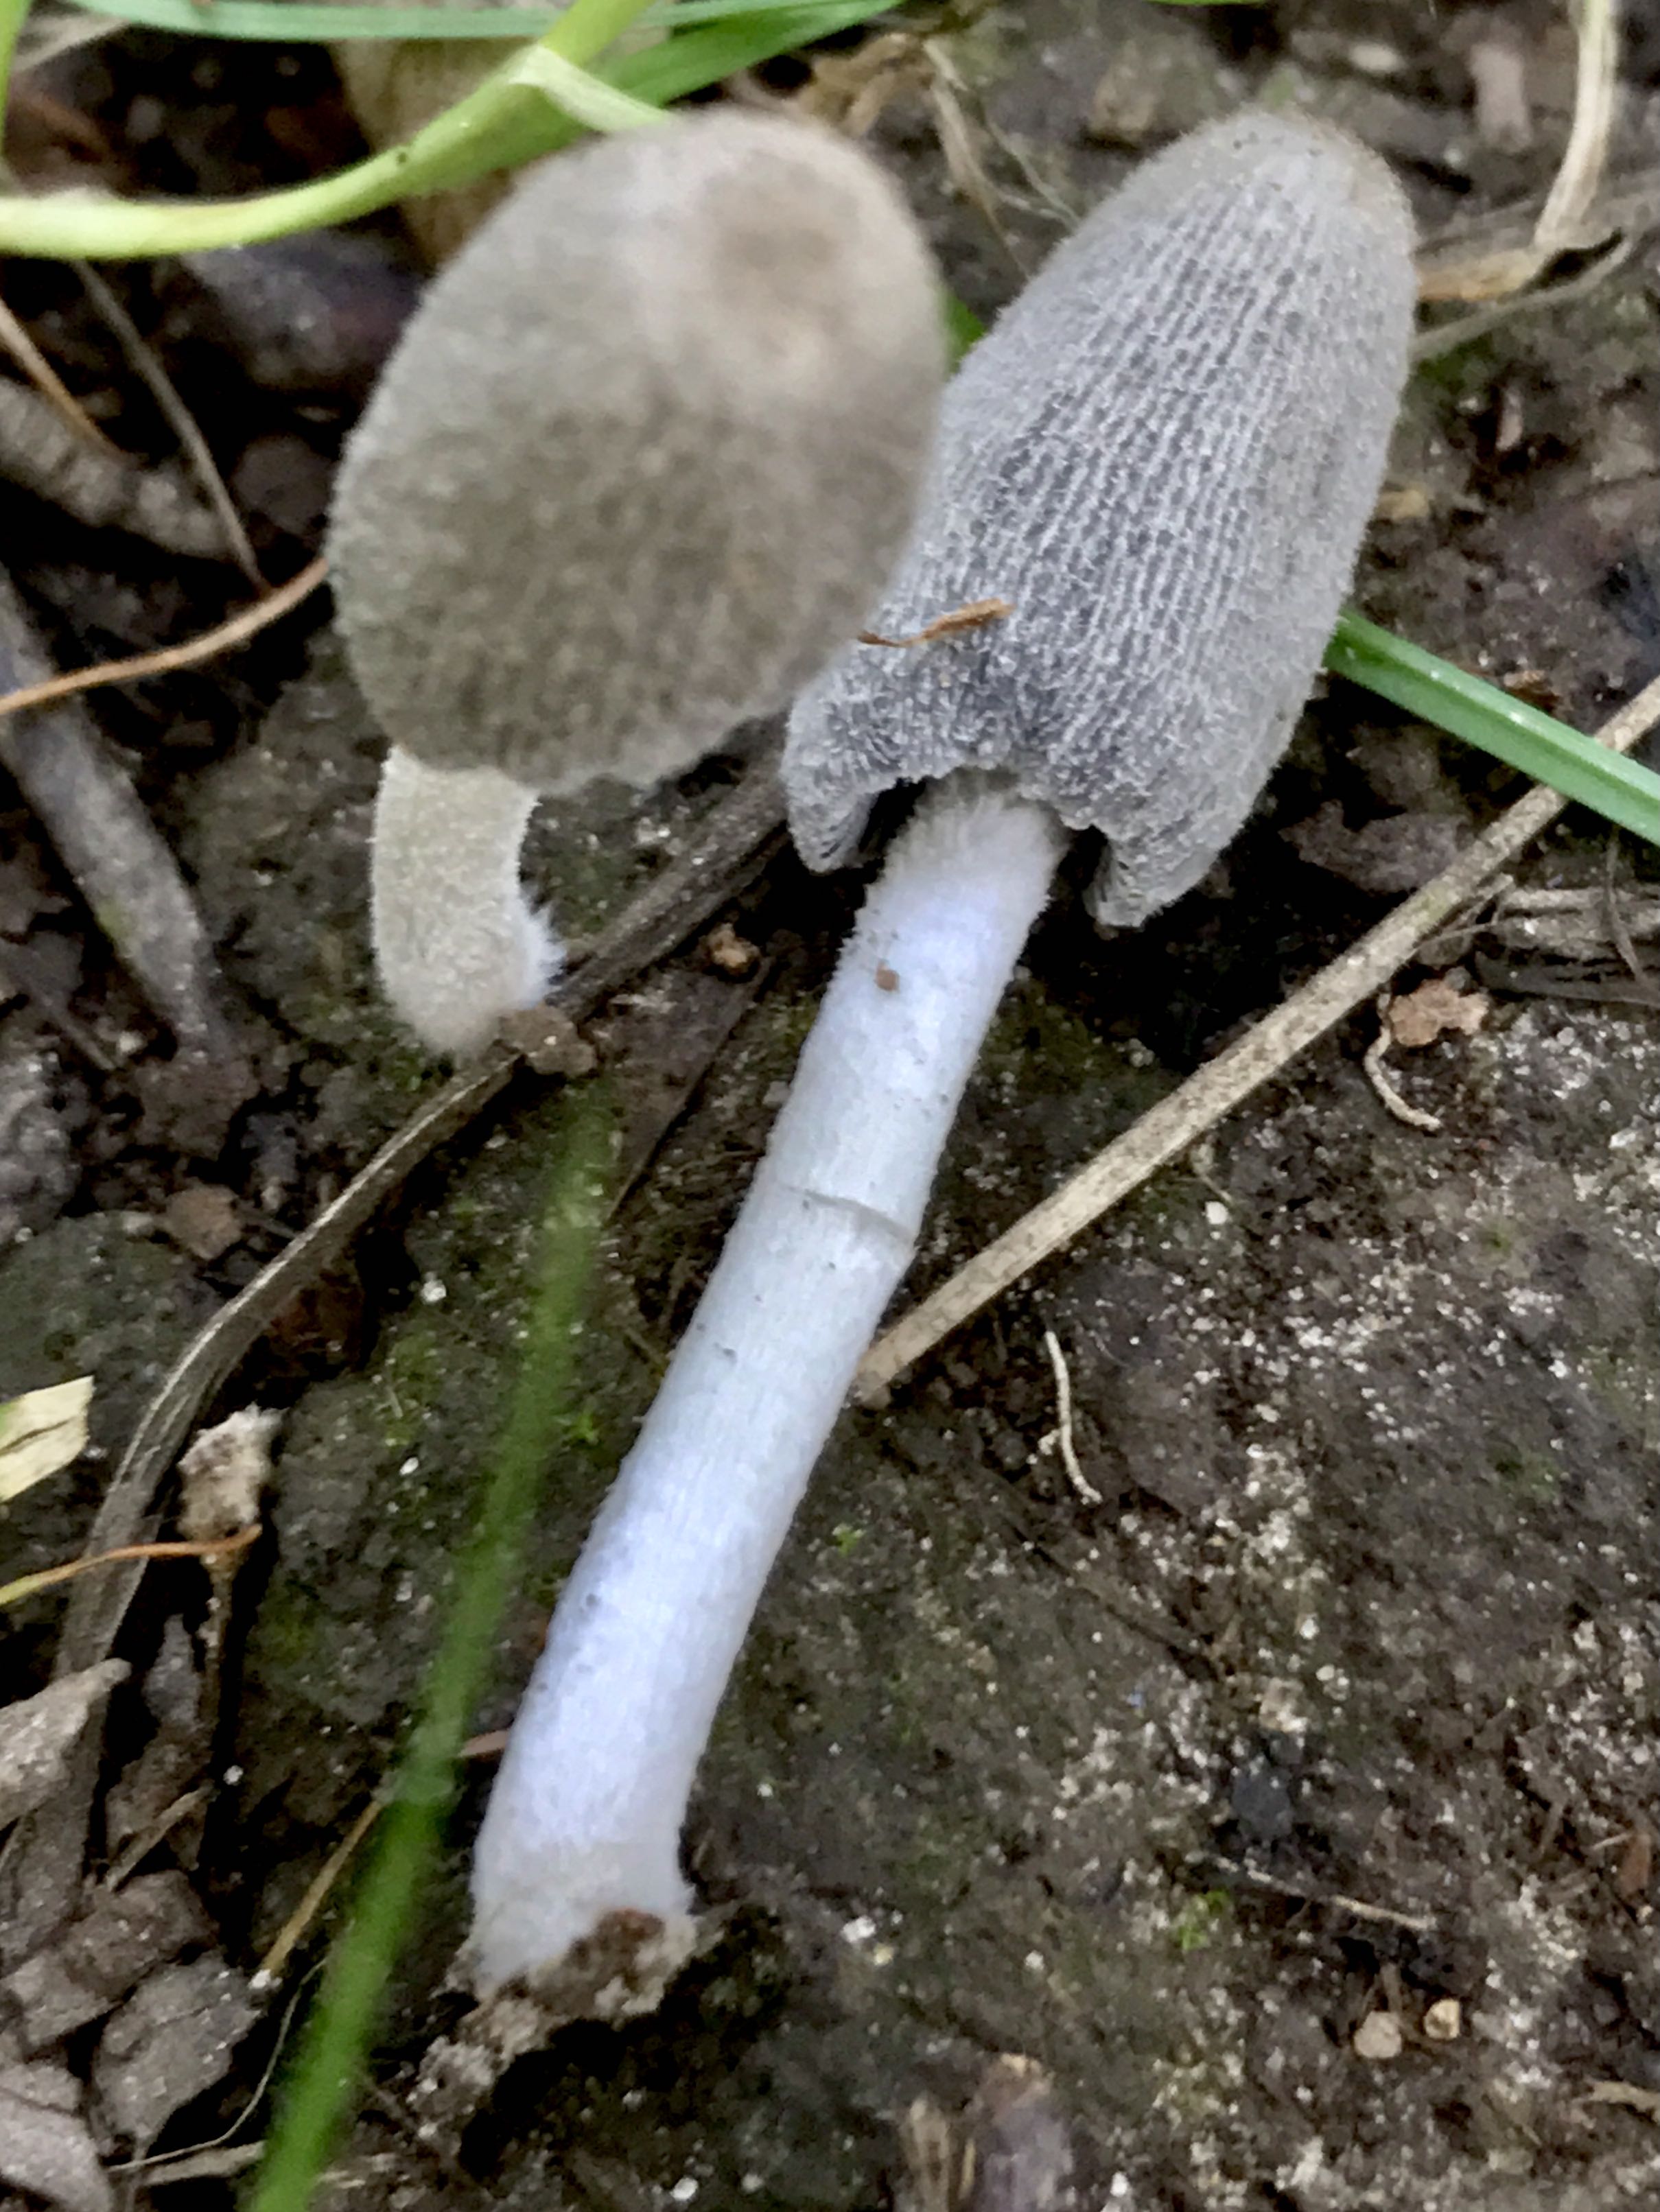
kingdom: Fungi
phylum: Basidiomycota
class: Agaricomycetes
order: Agaricales
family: Psathyrellaceae
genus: Coprinopsis
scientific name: Coprinopsis lagopus
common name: dunstokket blækhat
